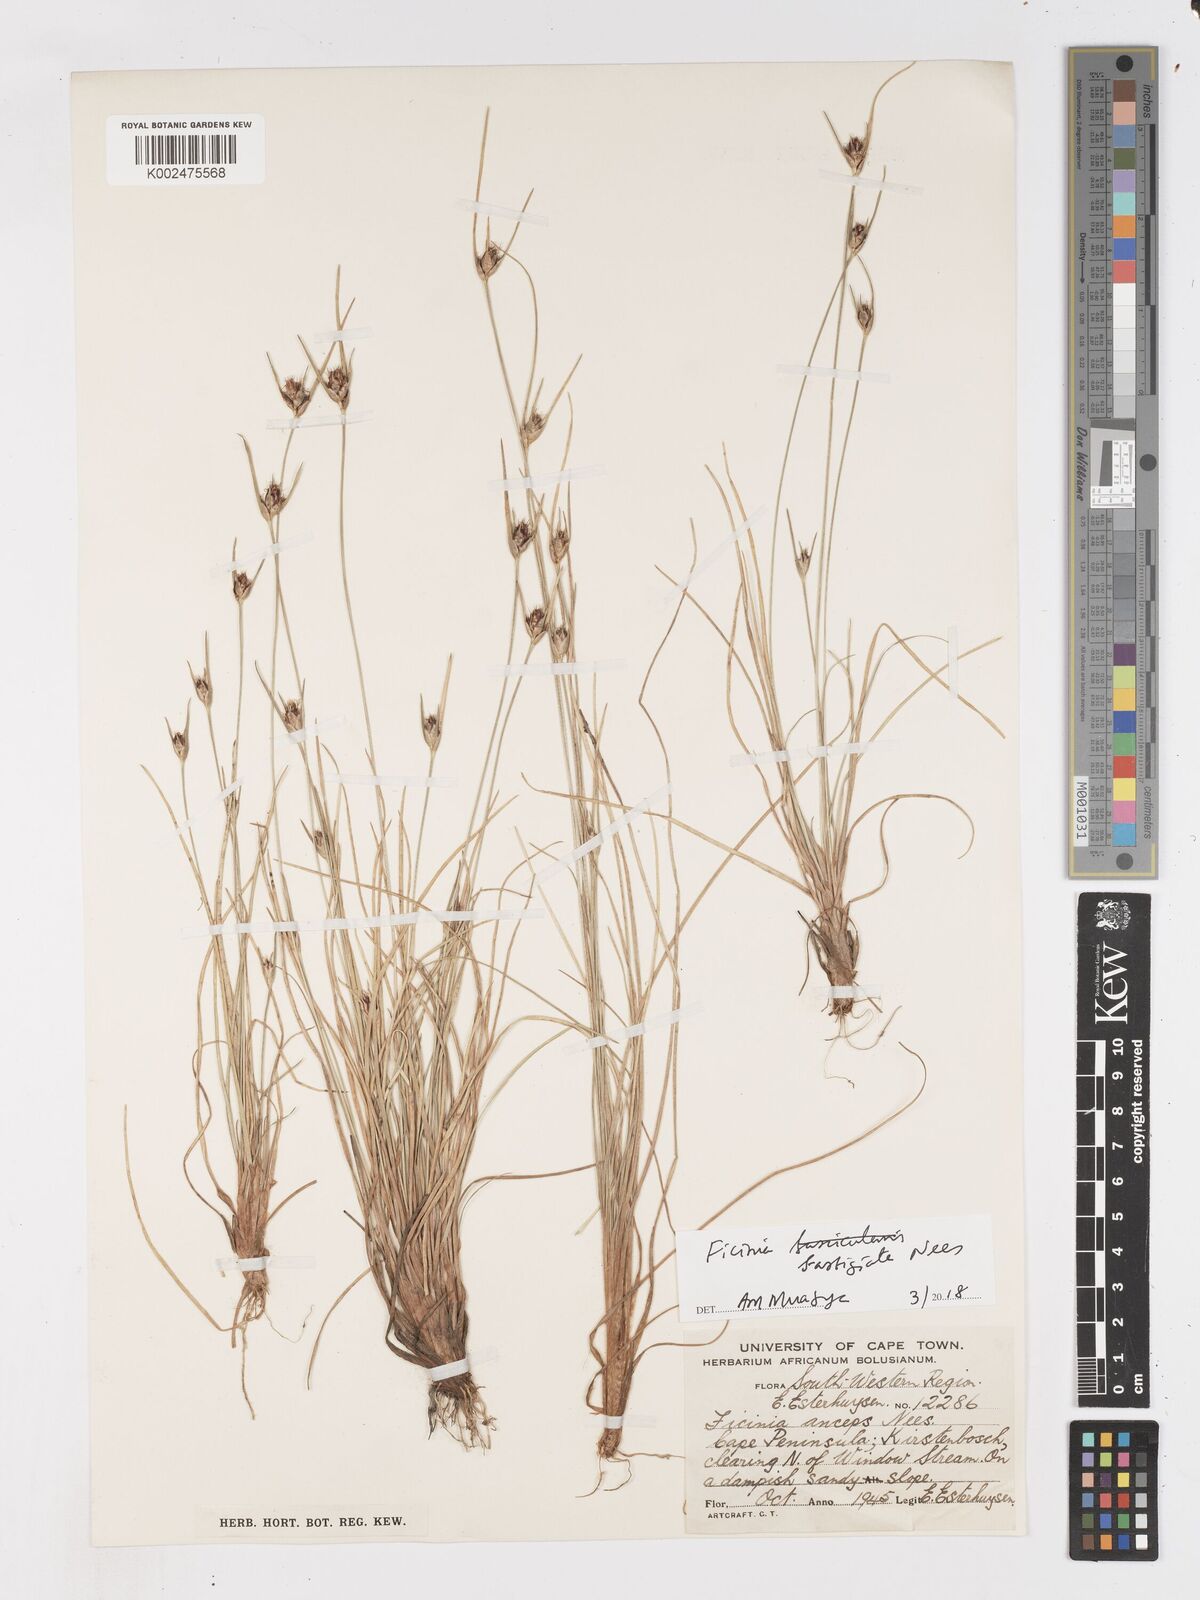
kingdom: Plantae
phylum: Tracheophyta
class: Liliopsida
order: Poales
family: Cyperaceae
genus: Ficinia
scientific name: Ficinia fastigiata
